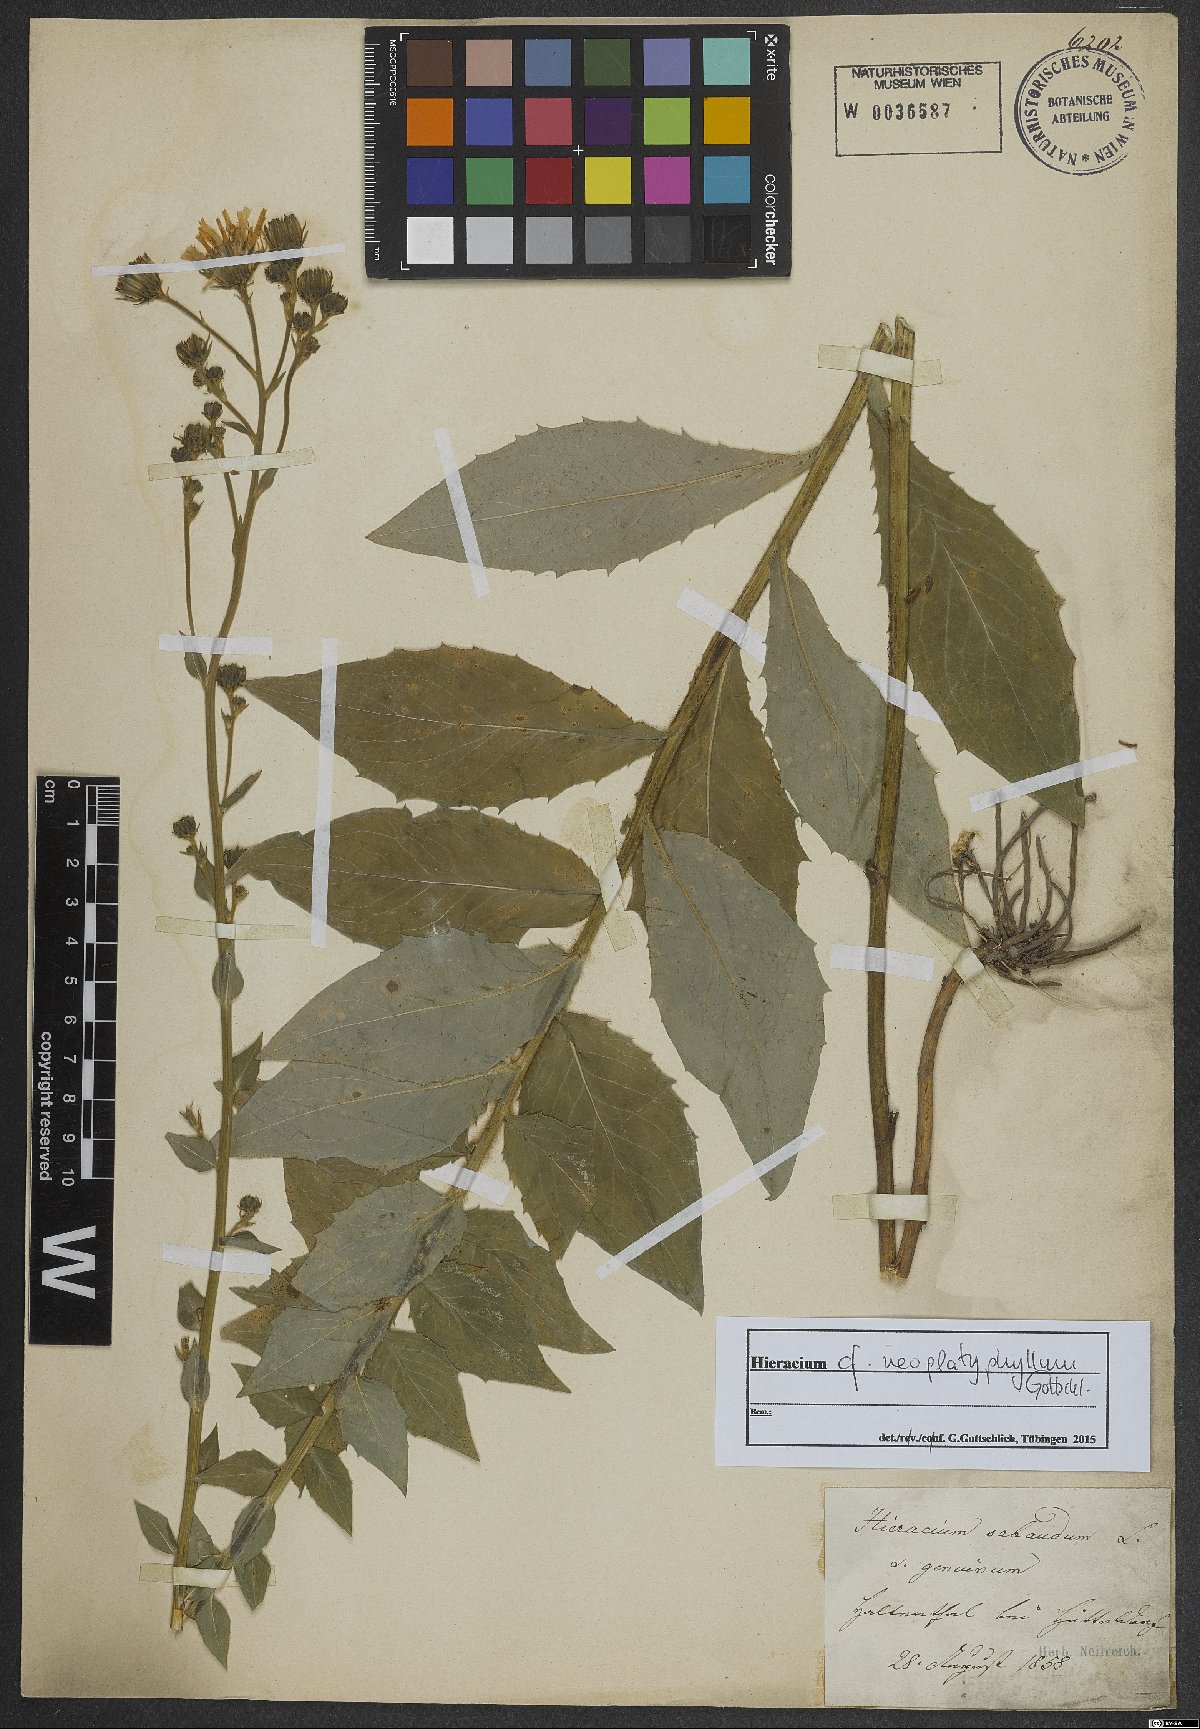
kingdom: Plantae
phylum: Tracheophyta
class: Magnoliopsida
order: Asterales
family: Asteraceae
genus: Hieracium
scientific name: Hieracium neoplatyphyllum
